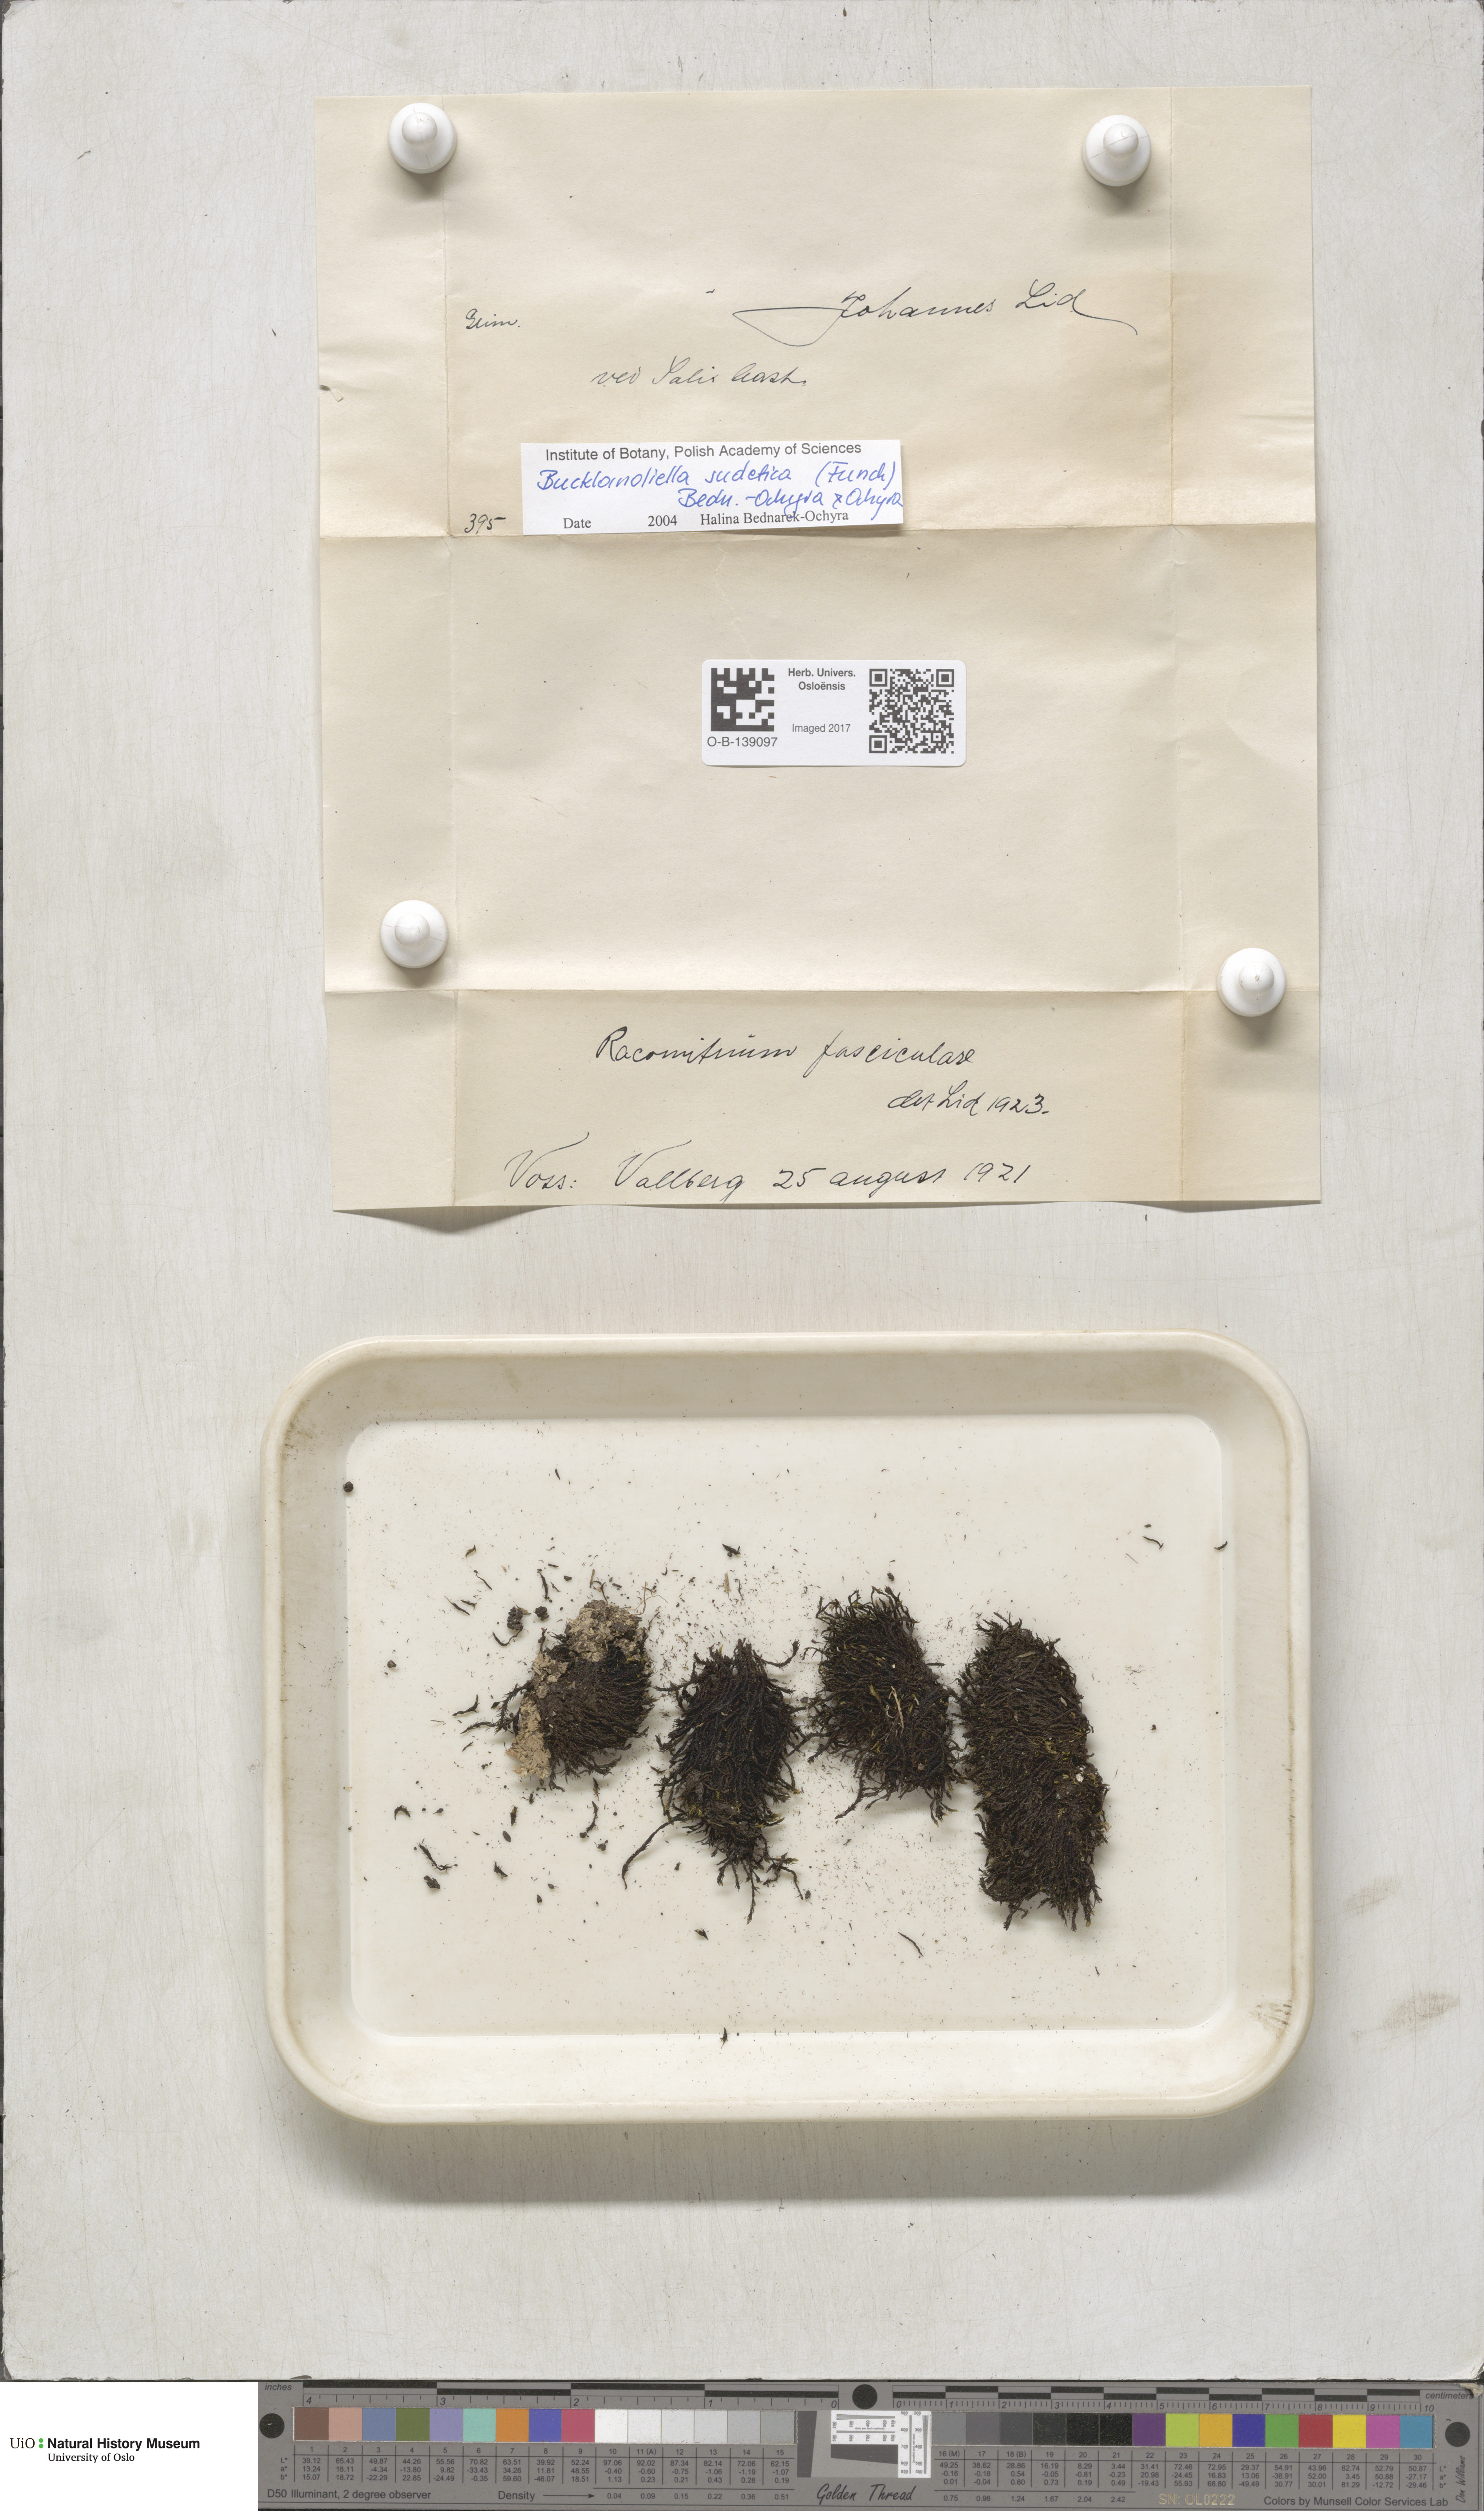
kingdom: Plantae
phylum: Bryophyta
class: Bryopsida
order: Grimmiales
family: Grimmiaceae
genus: Bucklandiella
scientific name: Bucklandiella sudetica
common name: Slender fringe-moss
